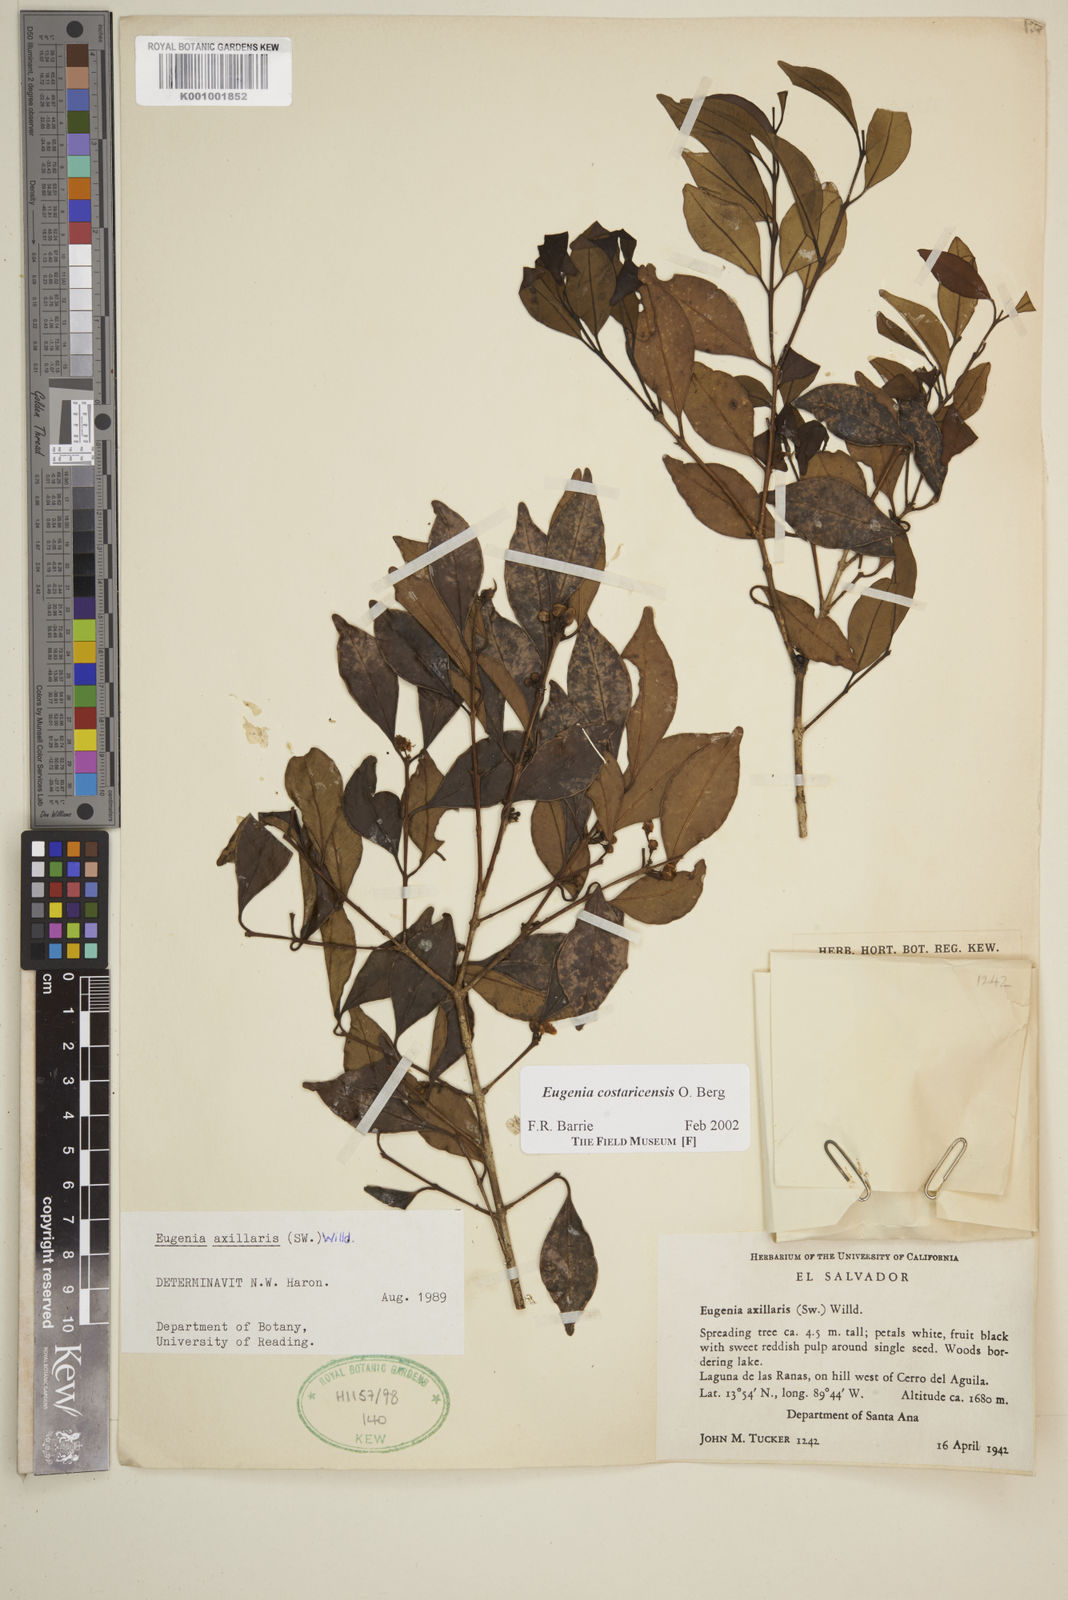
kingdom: Plantae
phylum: Tracheophyta
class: Magnoliopsida
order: Myrtales
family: Myrtaceae
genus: Eugenia
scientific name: Eugenia costaricensis
